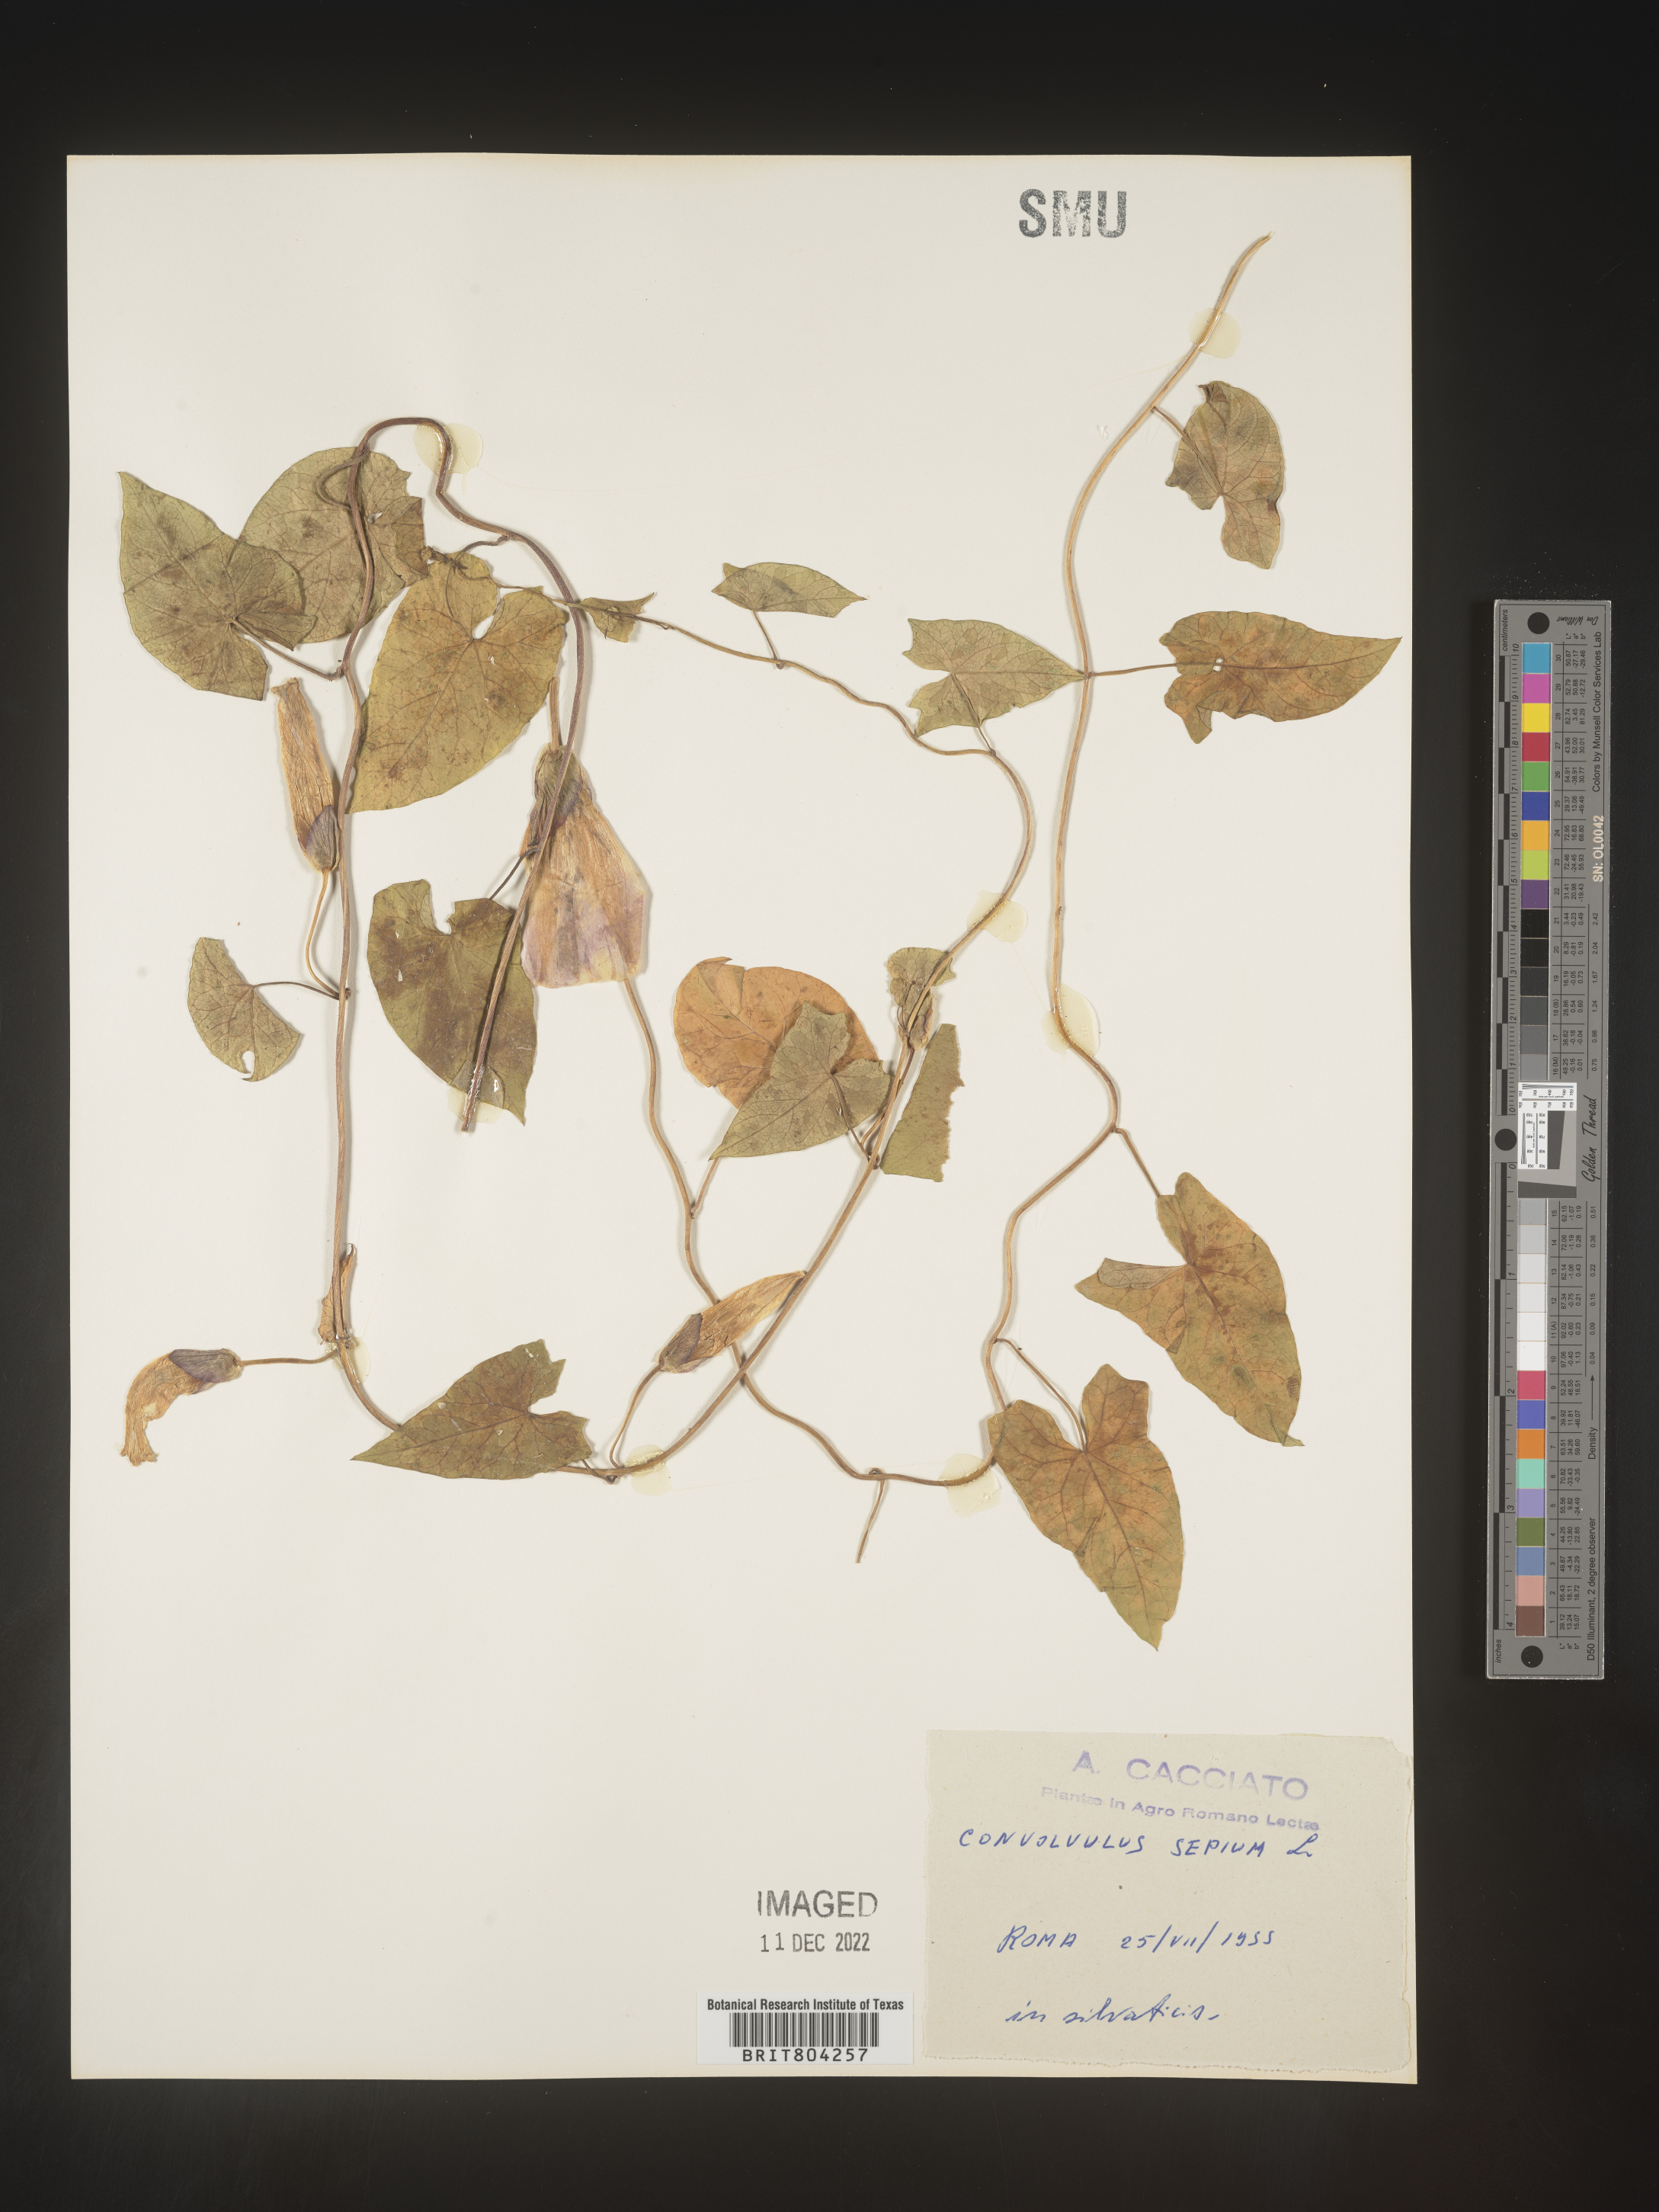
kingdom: Plantae
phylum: Tracheophyta
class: Magnoliopsida
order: Solanales
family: Convolvulaceae
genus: Calystegia
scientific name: Calystegia
